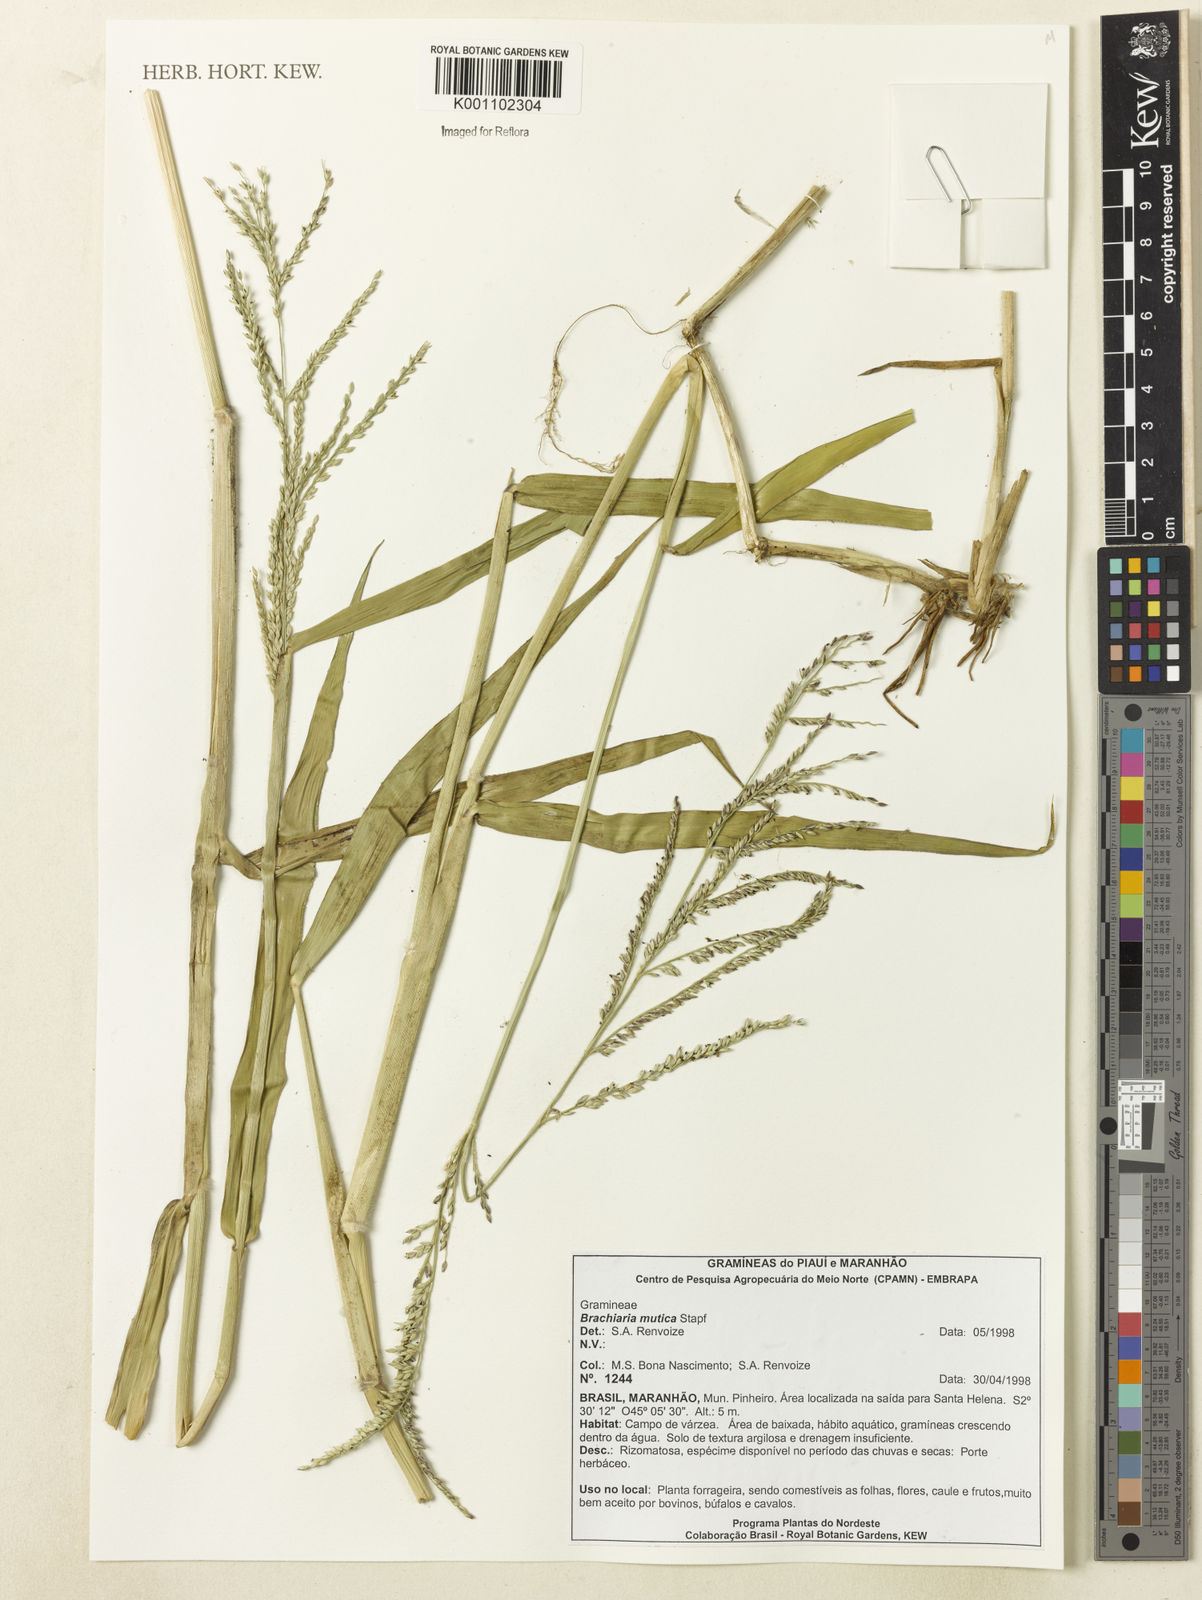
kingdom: Plantae
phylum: Tracheophyta
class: Liliopsida
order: Poales
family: Poaceae
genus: Urochloa
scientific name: Urochloa mutica
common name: Para grass
